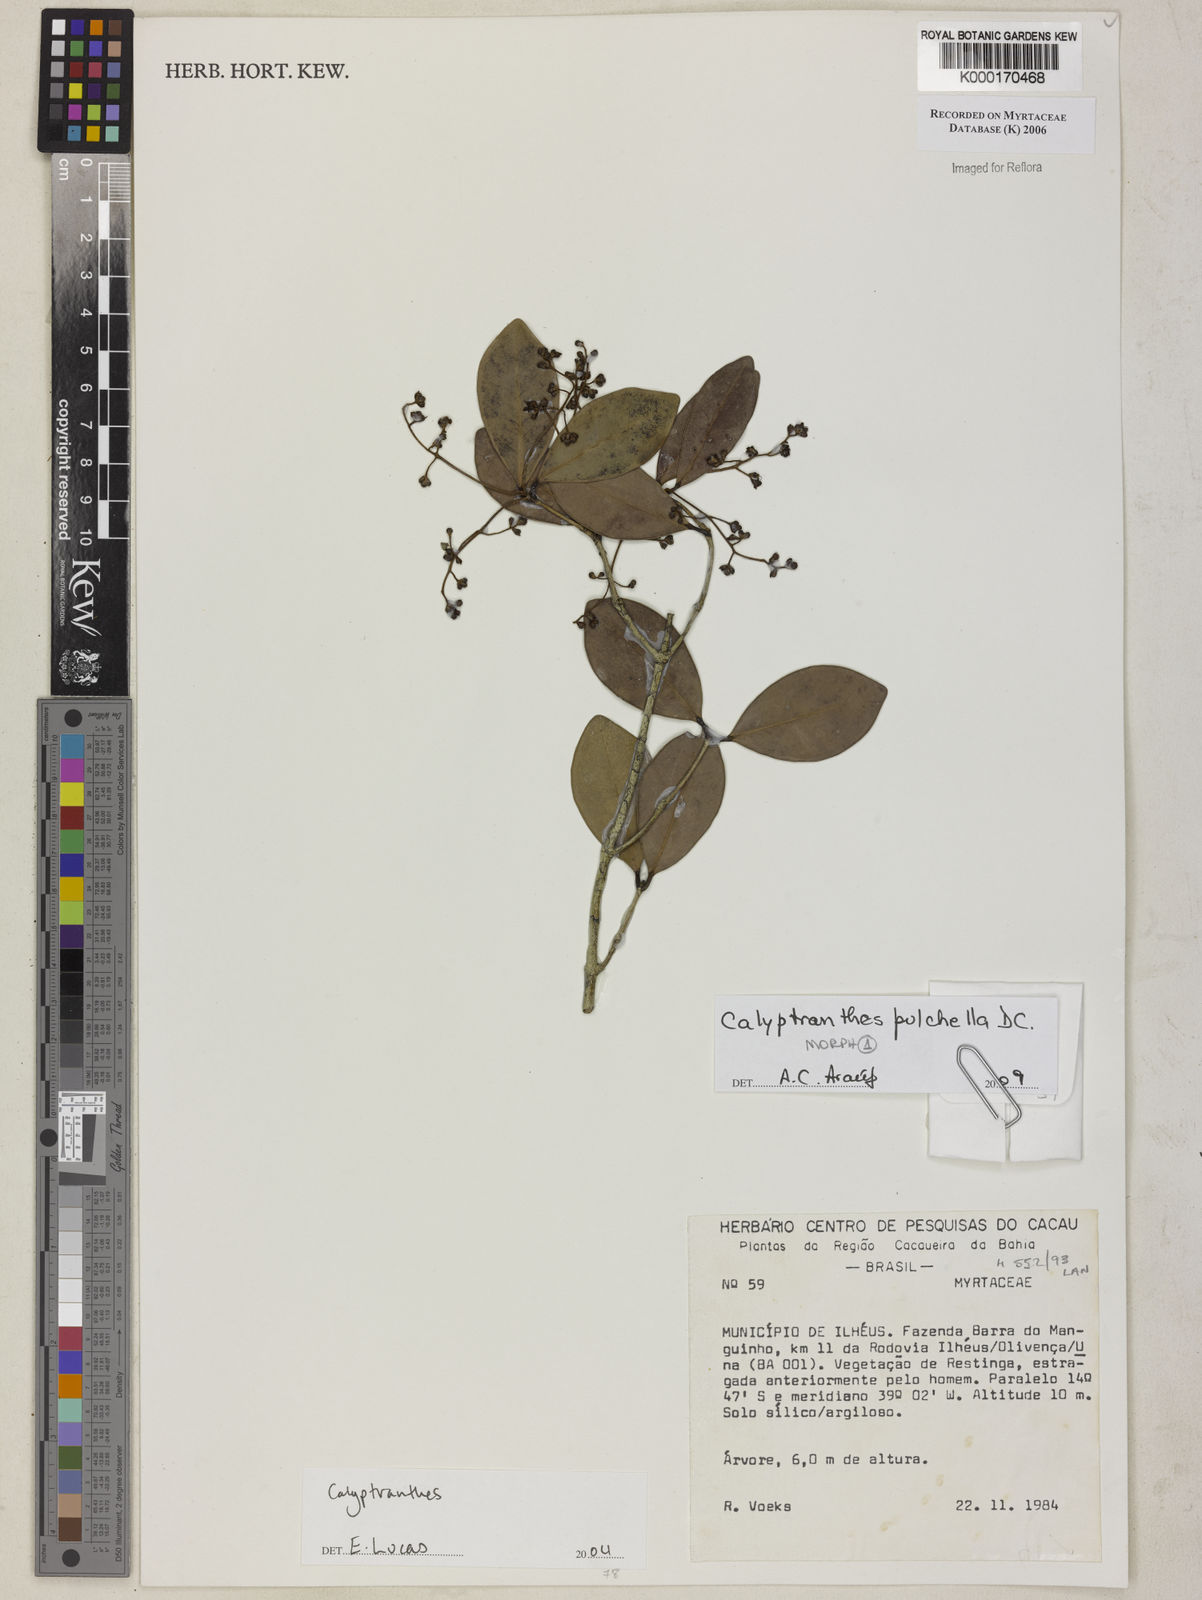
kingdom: Plantae
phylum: Tracheophyta
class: Magnoliopsida
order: Myrtales
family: Myrtaceae
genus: Calyptranthes
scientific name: Calyptranthes
